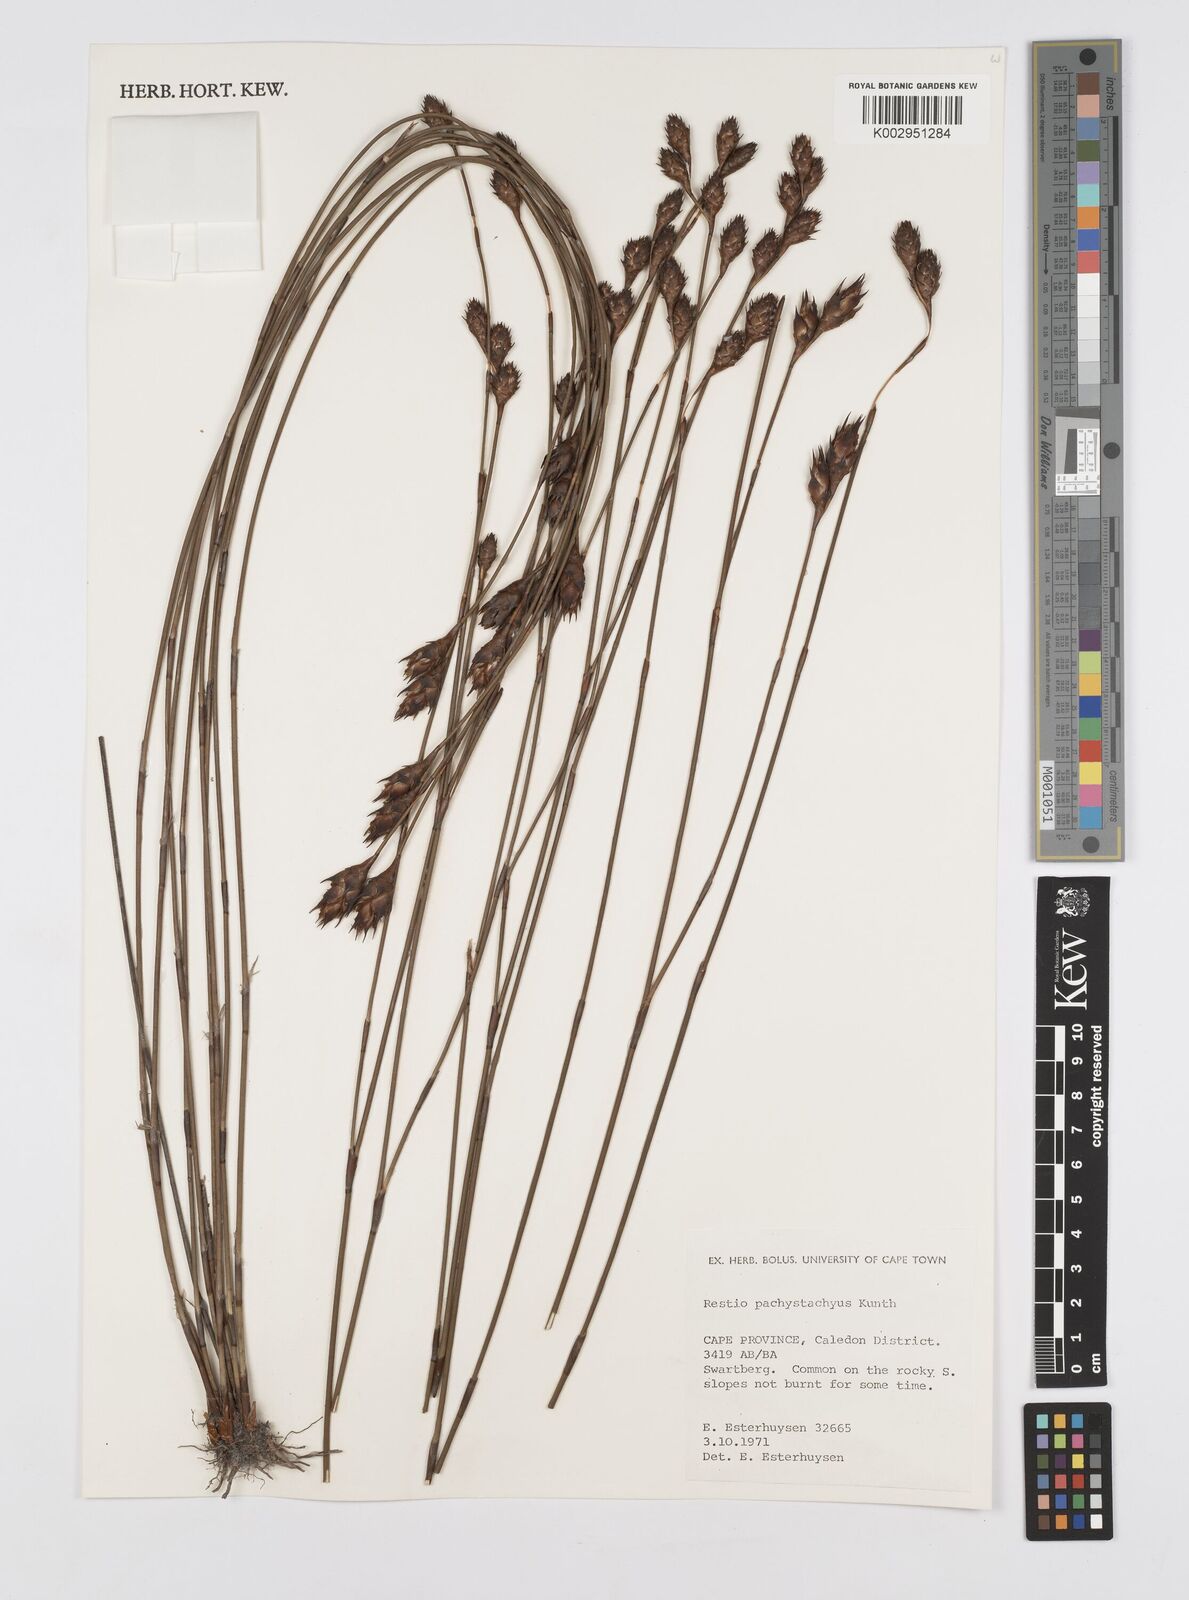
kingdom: Plantae
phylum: Tracheophyta
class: Liliopsida
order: Poales
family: Restionaceae
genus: Restio
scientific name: Restio pachystachyus
